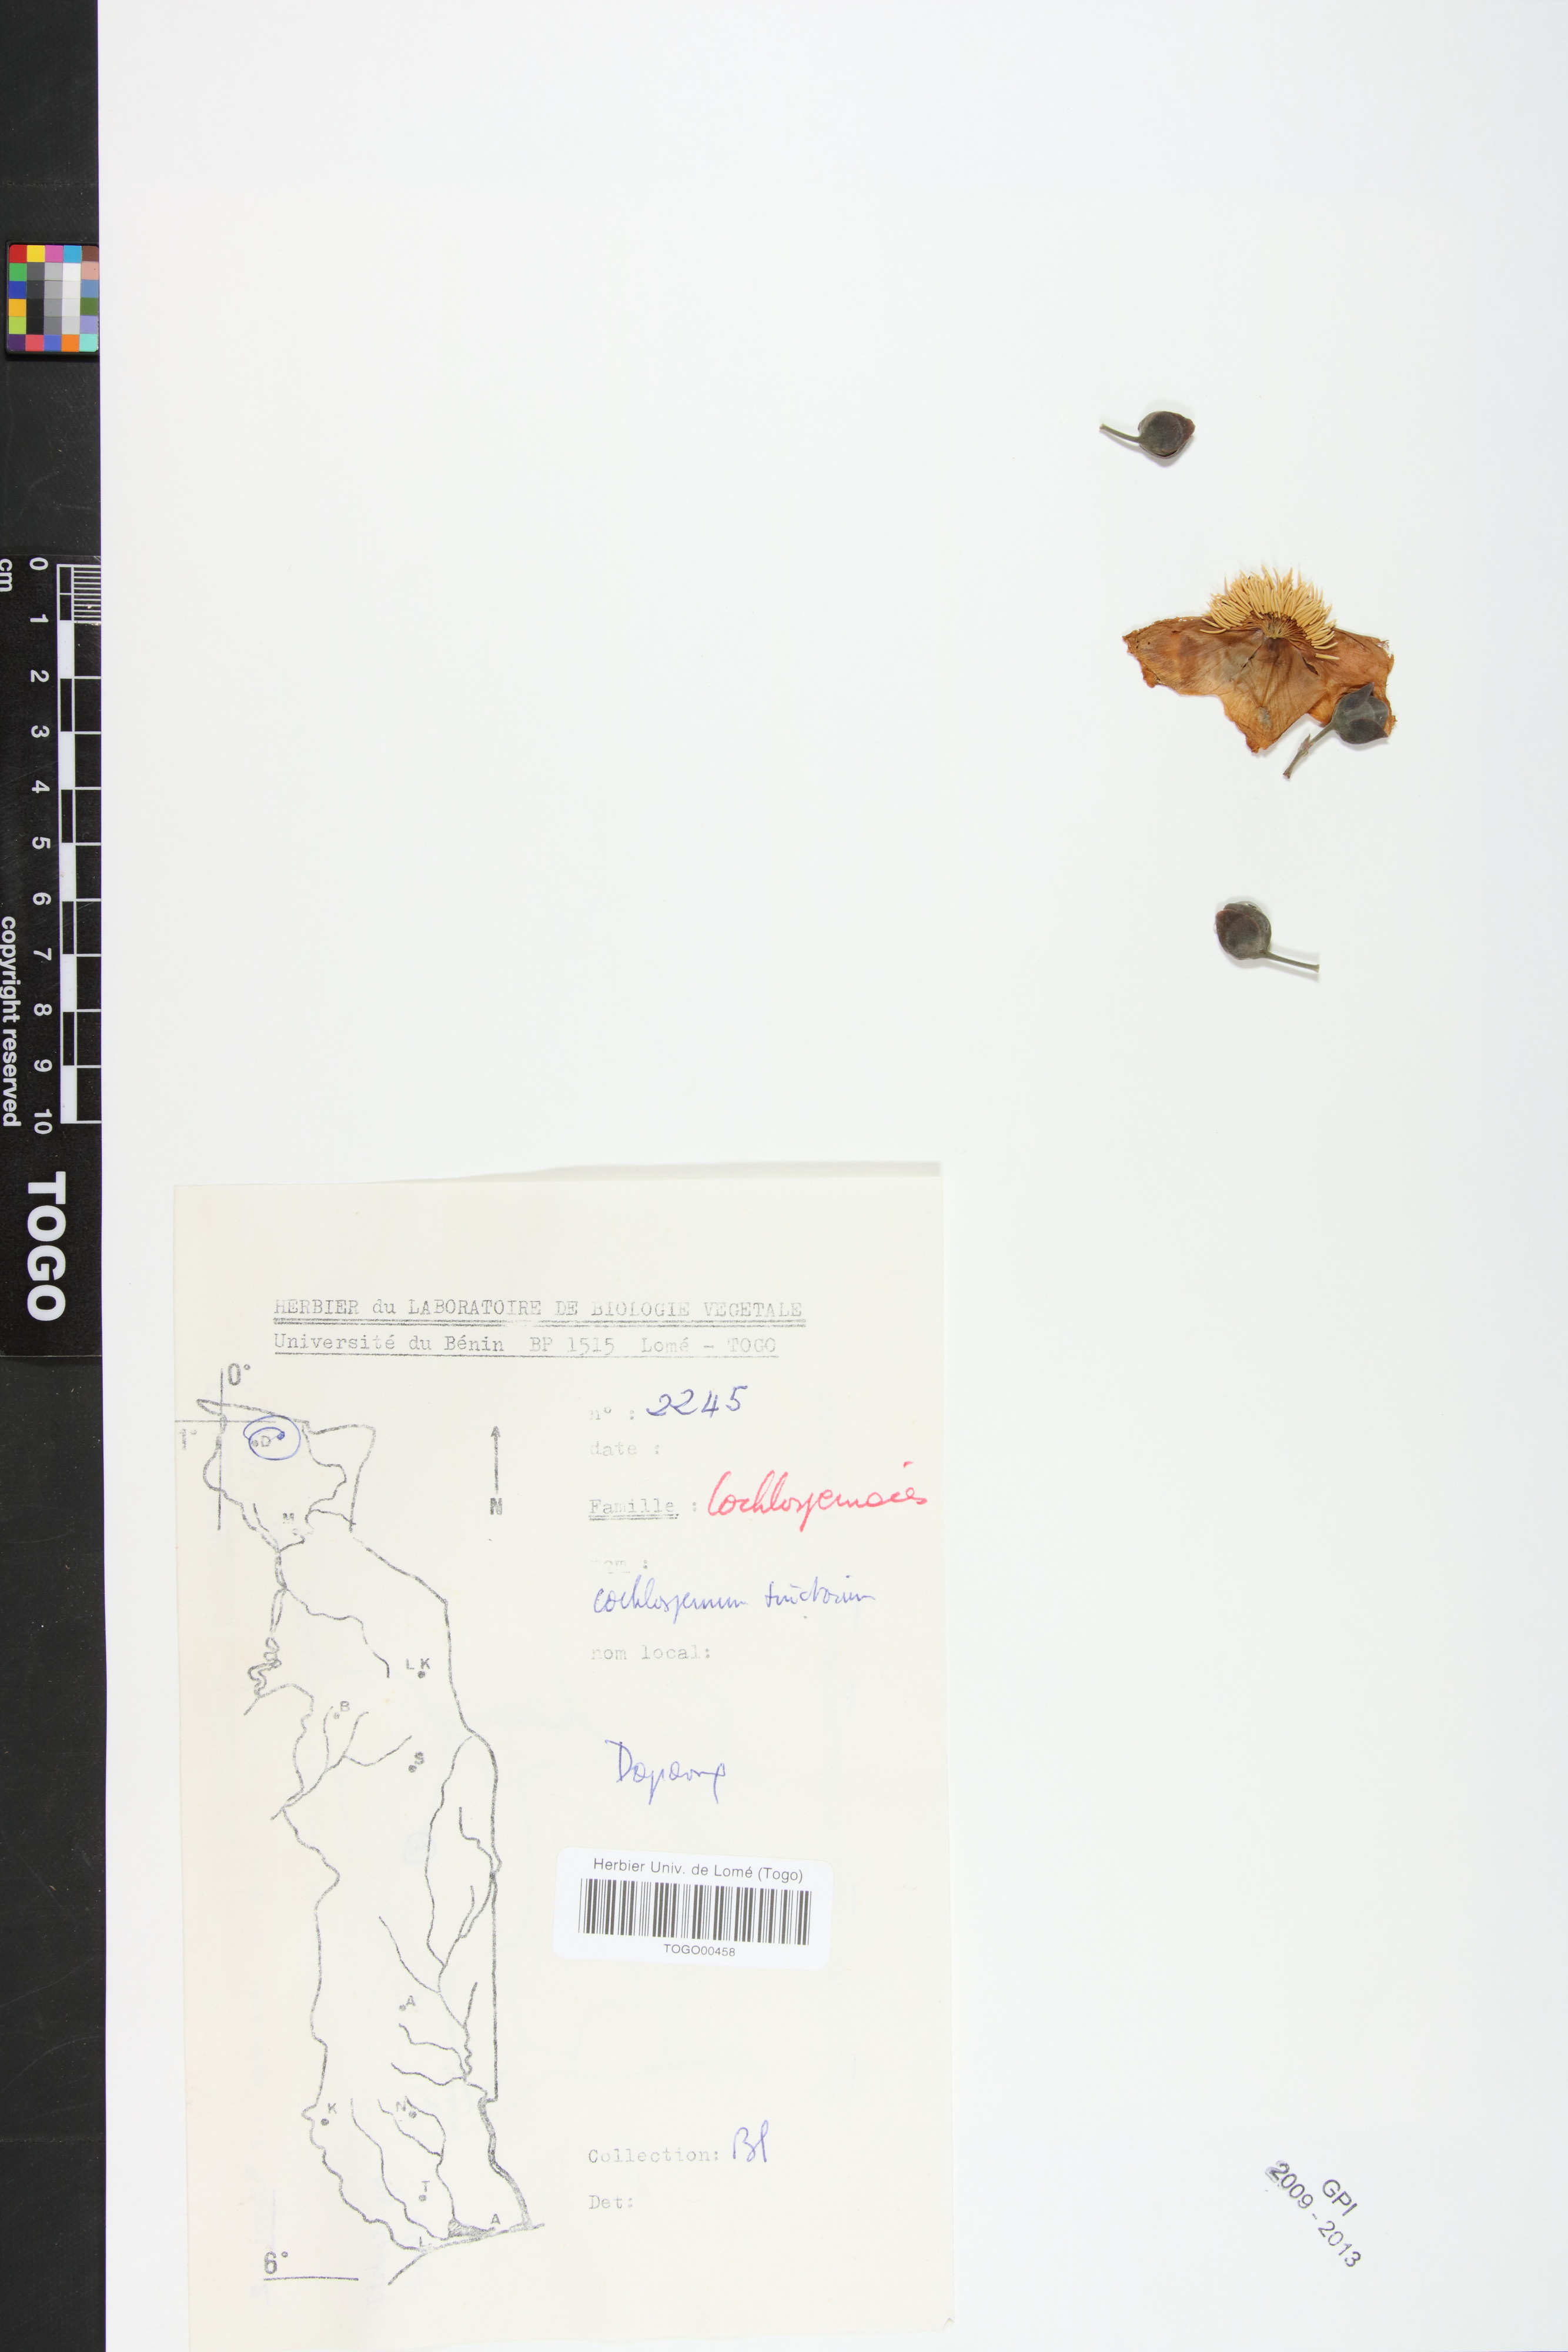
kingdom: Plantae
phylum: Tracheophyta
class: Magnoliopsida
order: Malvales
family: Cochlospermaceae
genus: Cochlospermum
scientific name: Cochlospermum tinctorium
